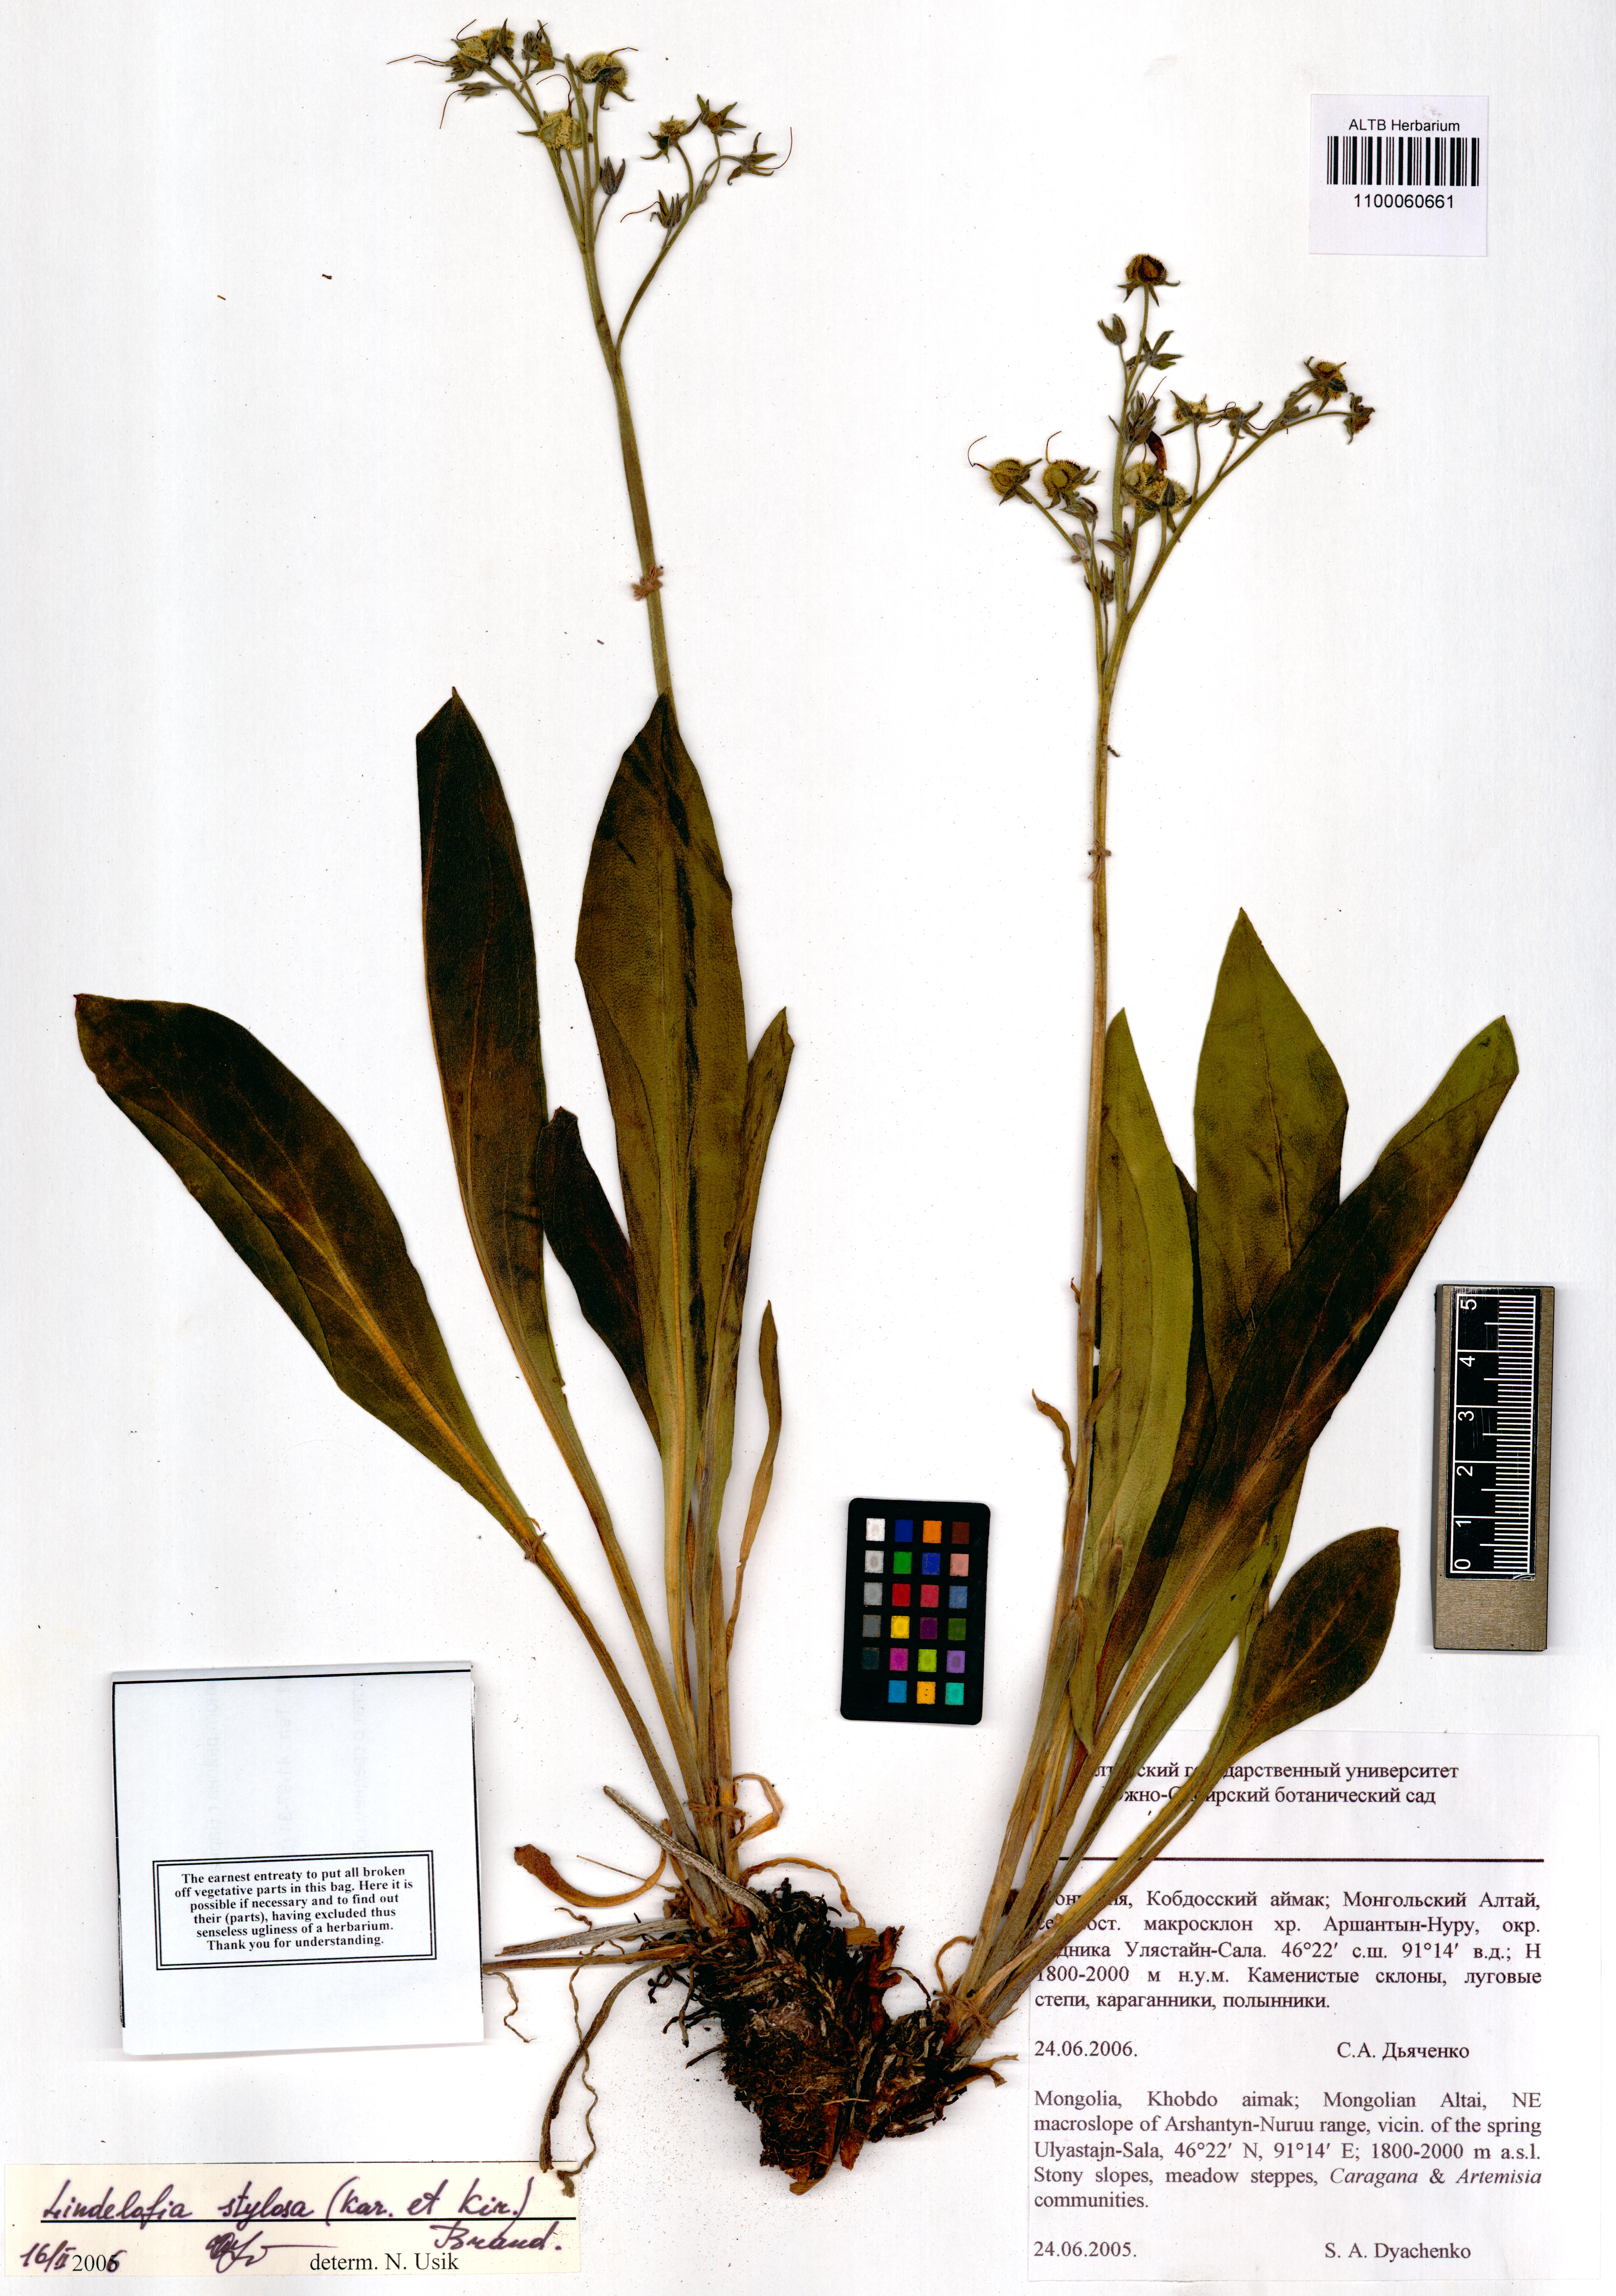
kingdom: Plantae
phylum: Tracheophyta
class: Magnoliopsida
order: Boraginales
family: Boraginaceae
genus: Lindelofia
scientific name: Lindelofia stylosa
